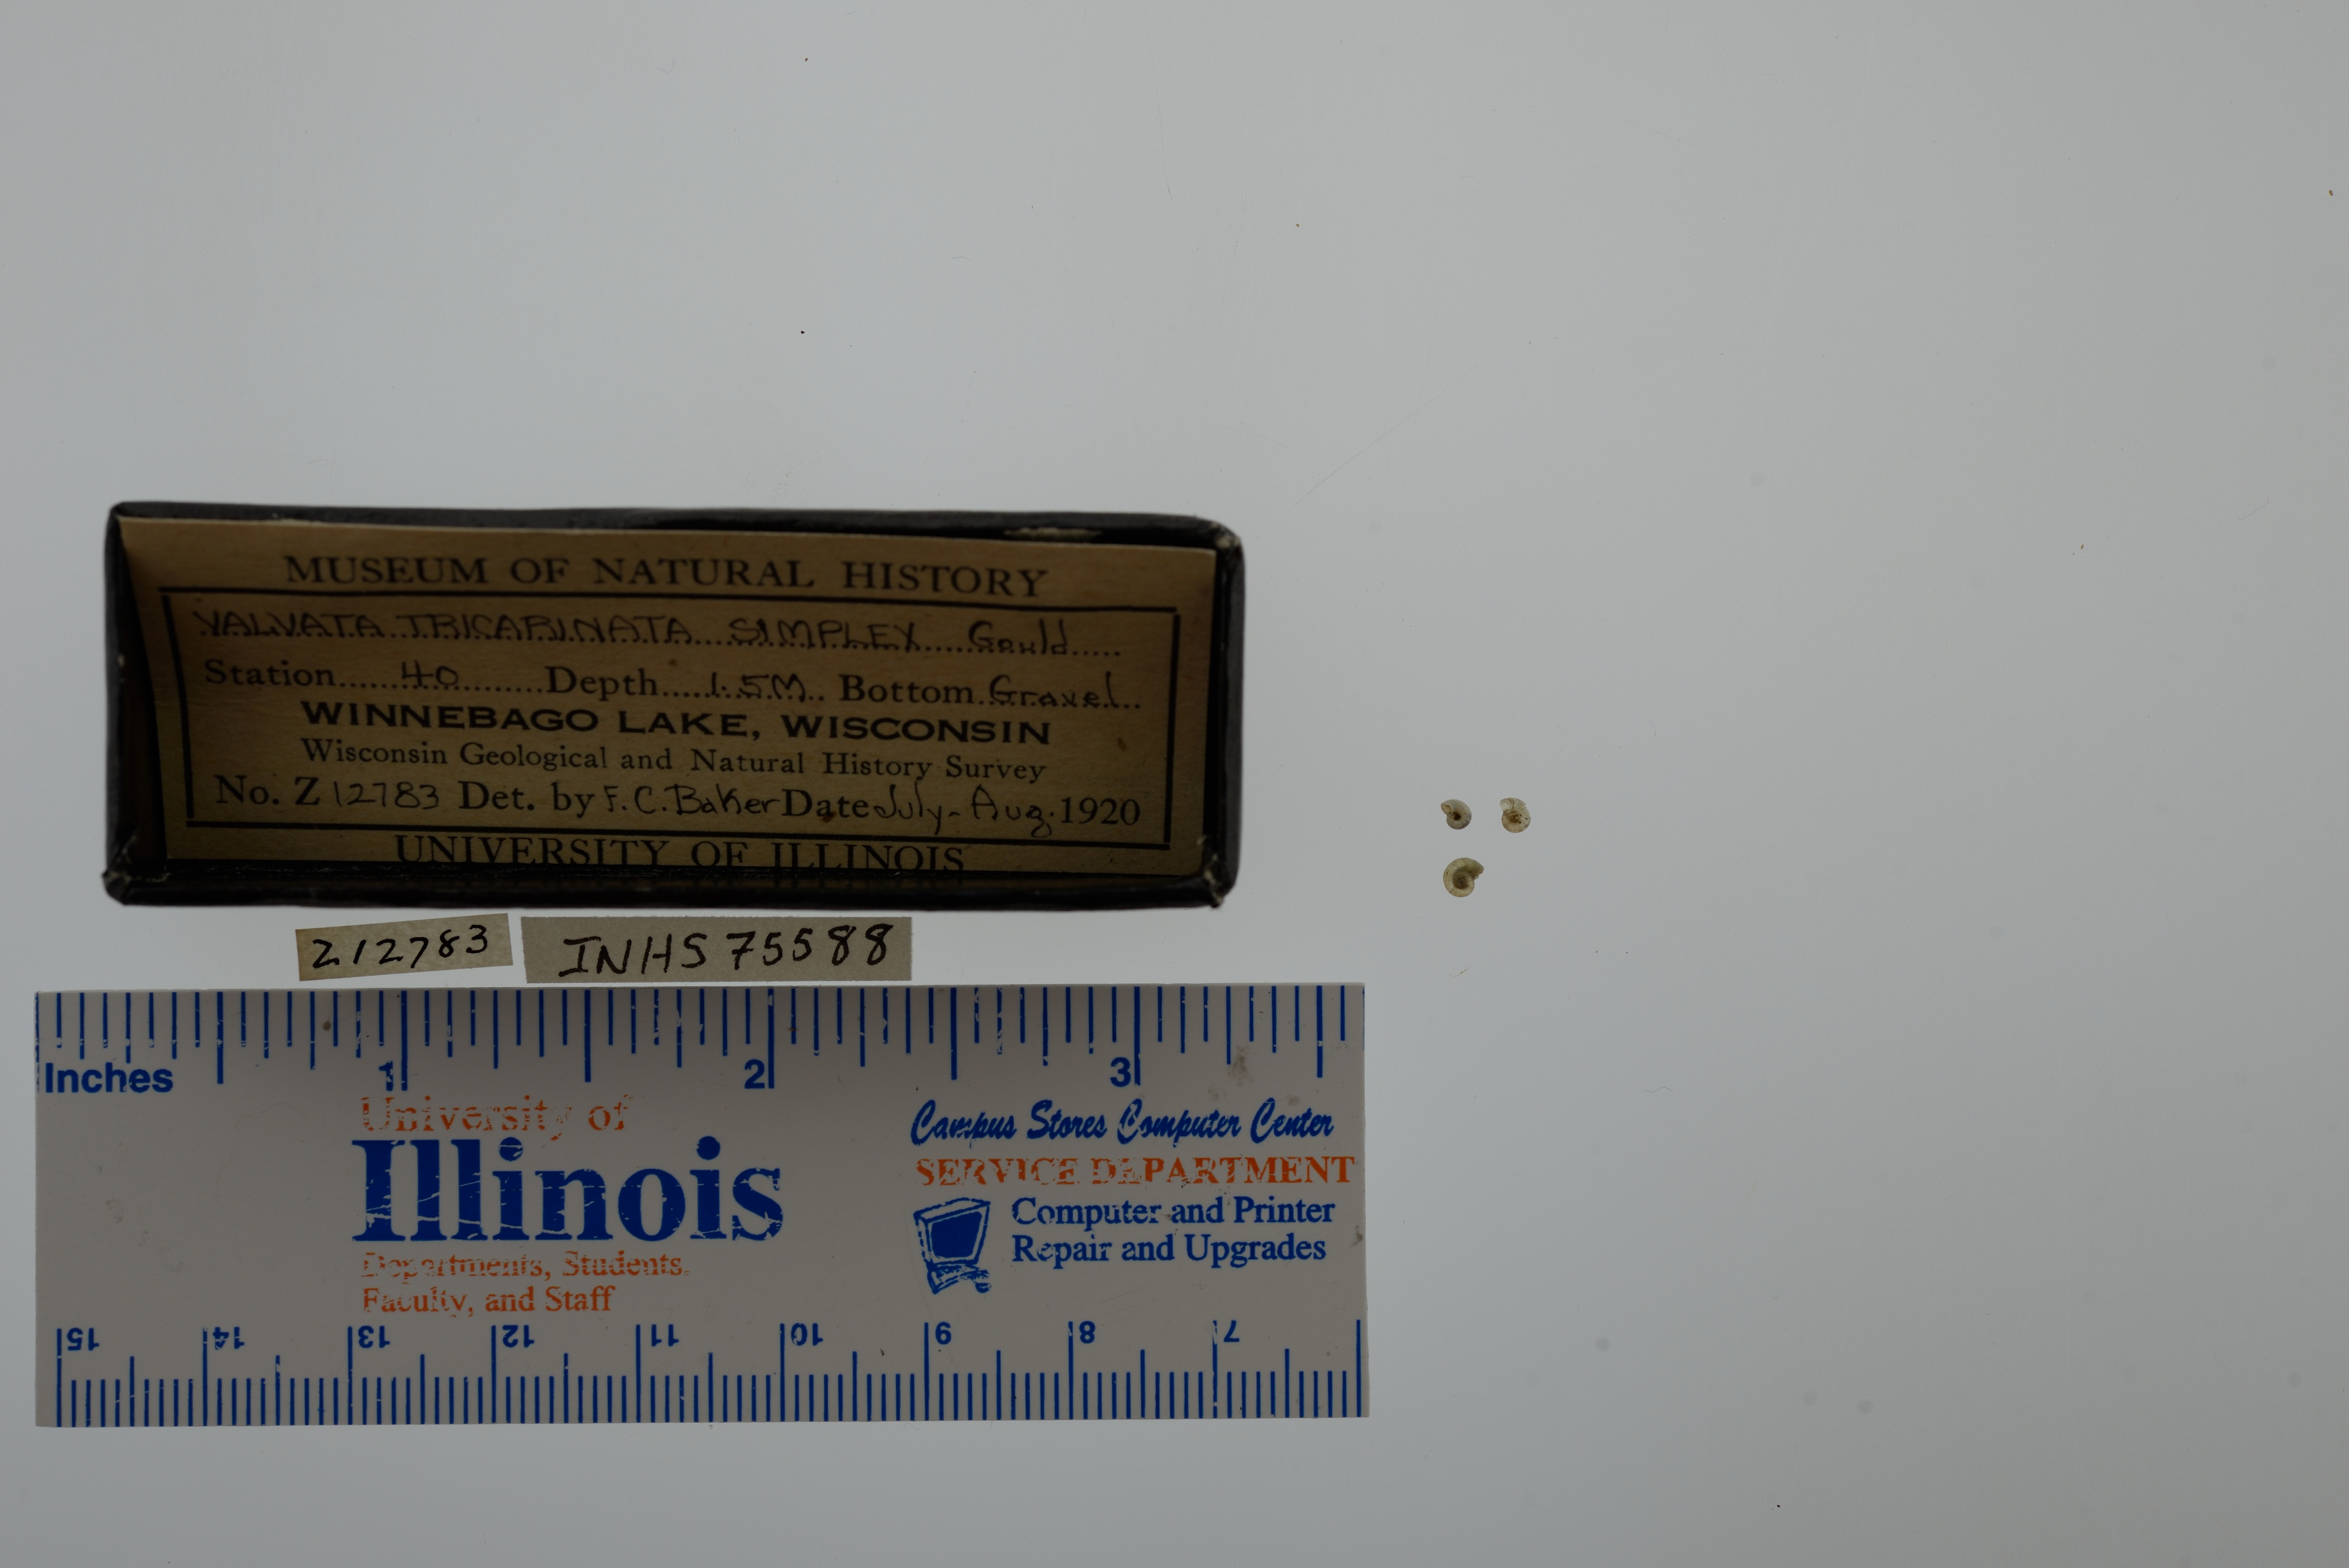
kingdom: Animalia
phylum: Mollusca
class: Gastropoda
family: Valvatidae
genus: Valvata
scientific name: Valvata tricarinata
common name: Three-ridge valvata
